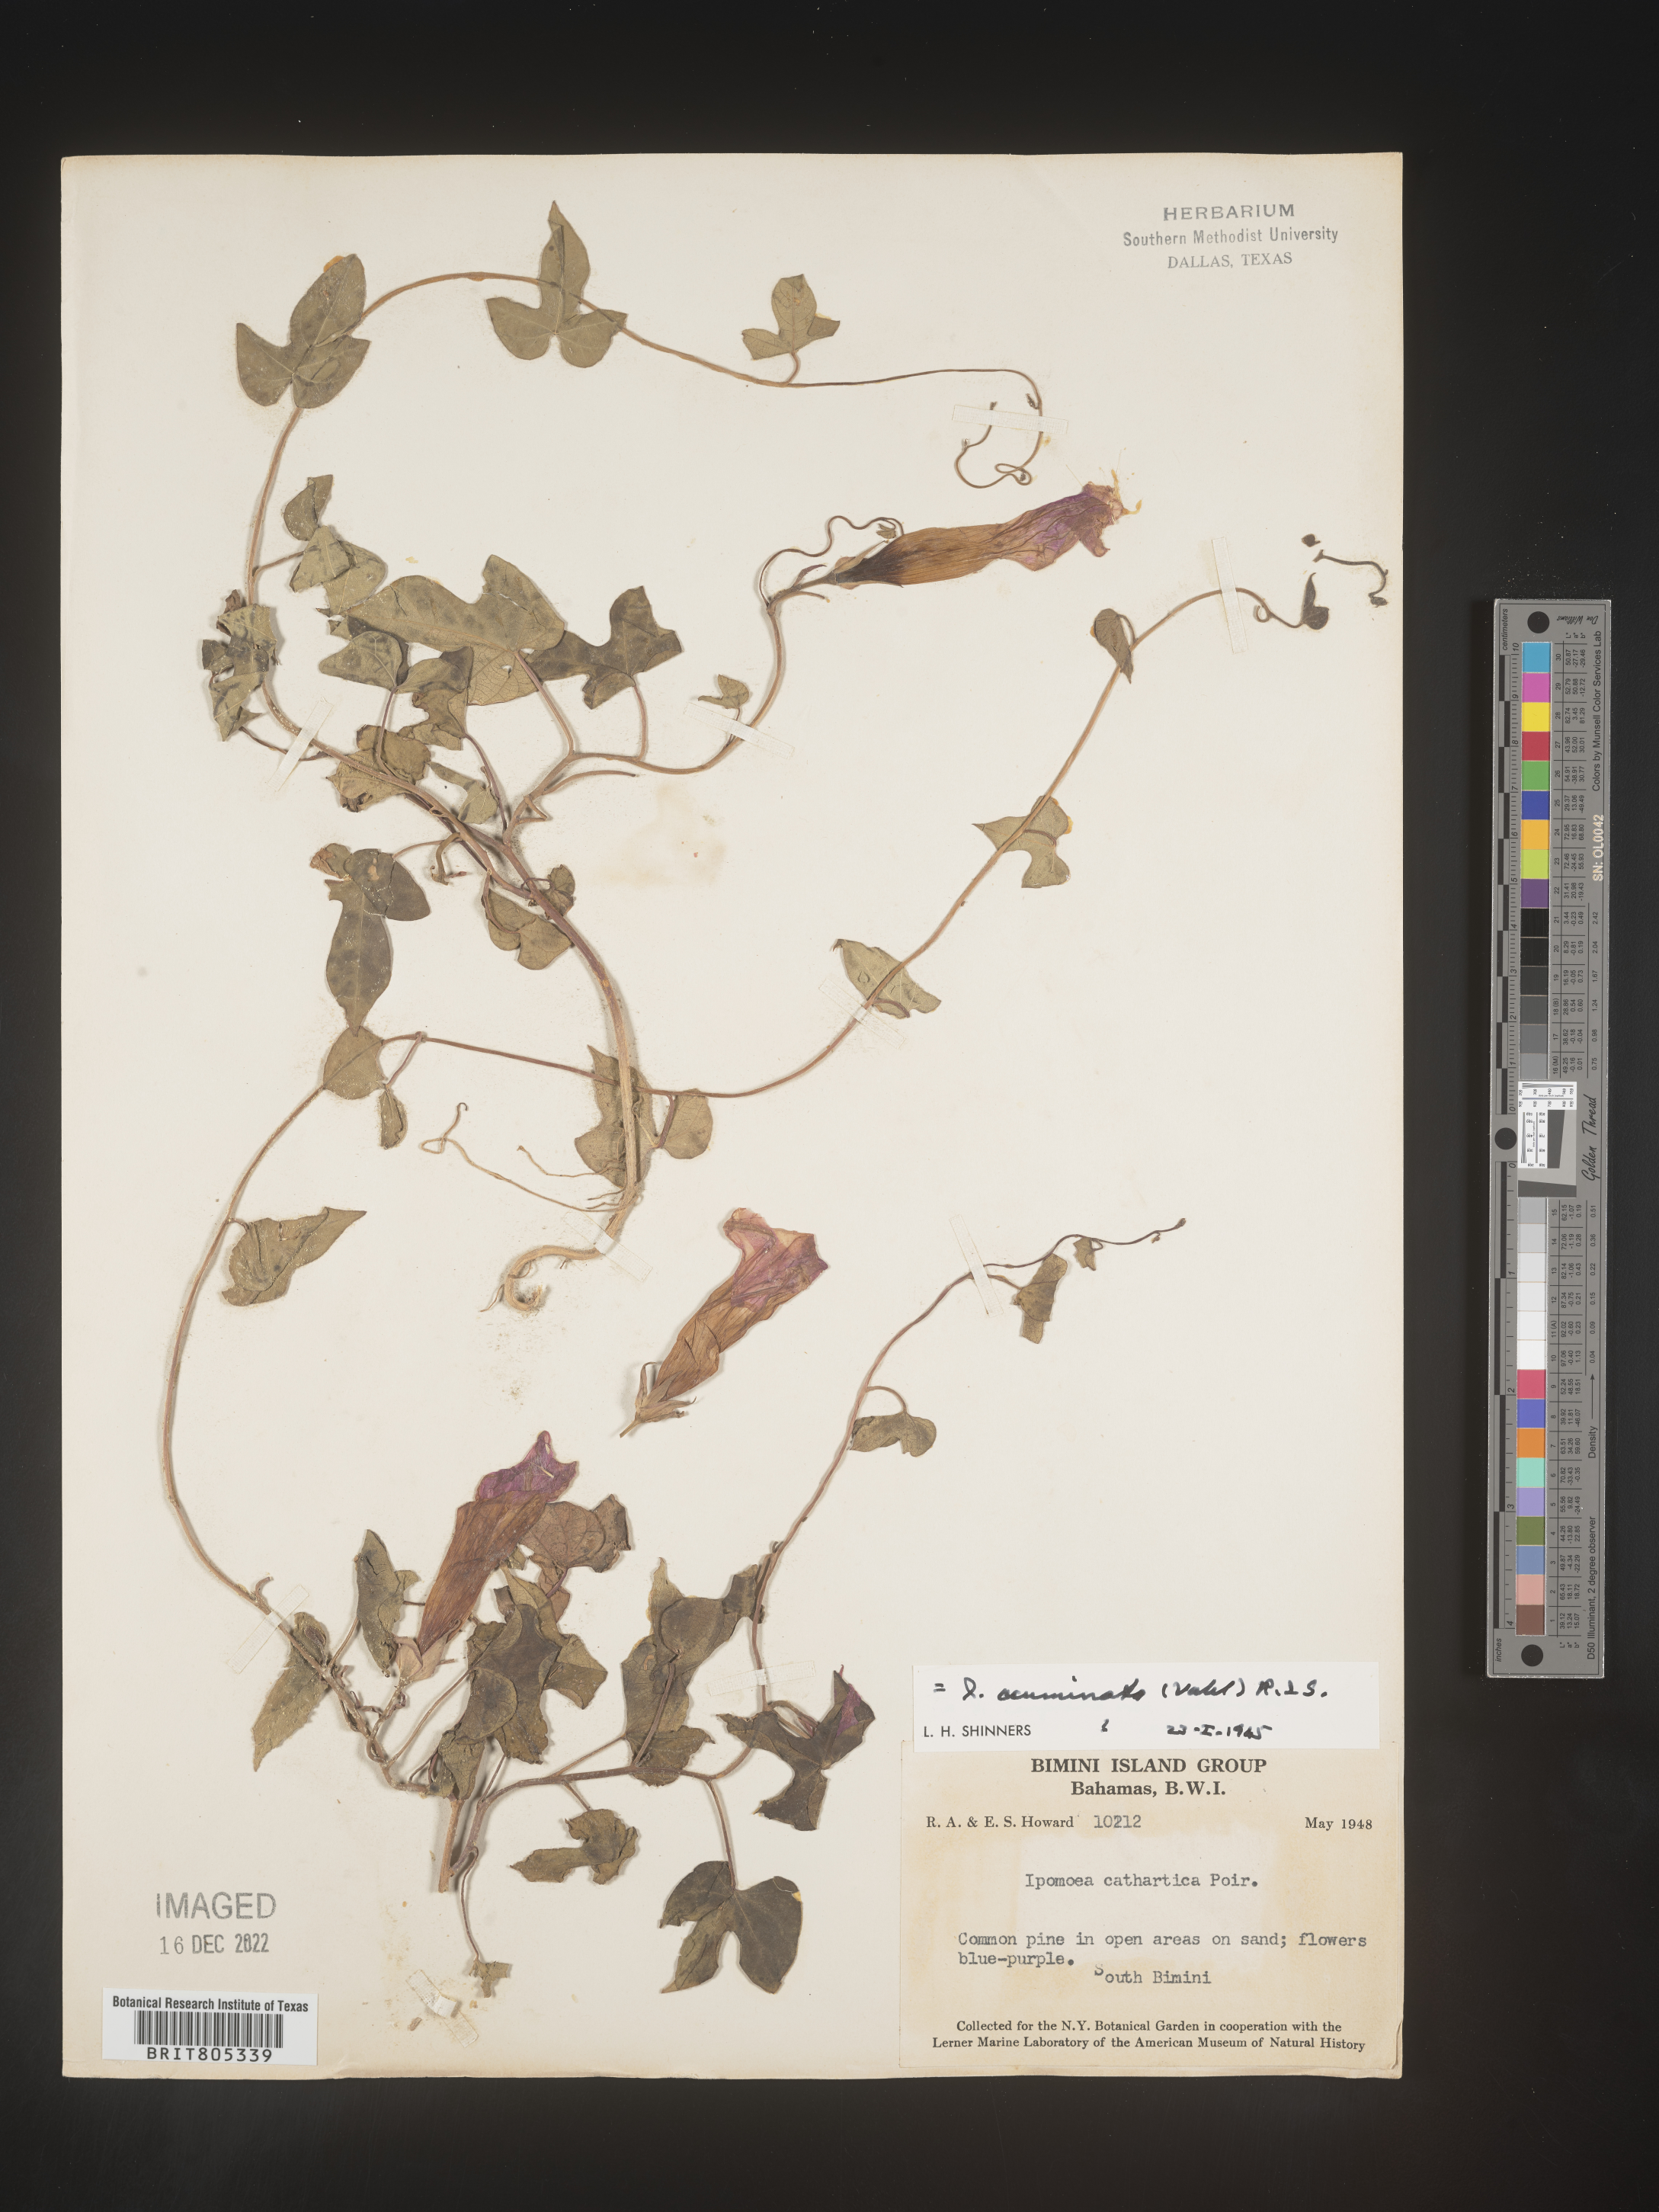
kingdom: Plantae
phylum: Tracheophyta
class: Magnoliopsida
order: Solanales
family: Convolvulaceae
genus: Ipomoea
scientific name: Ipomoea
